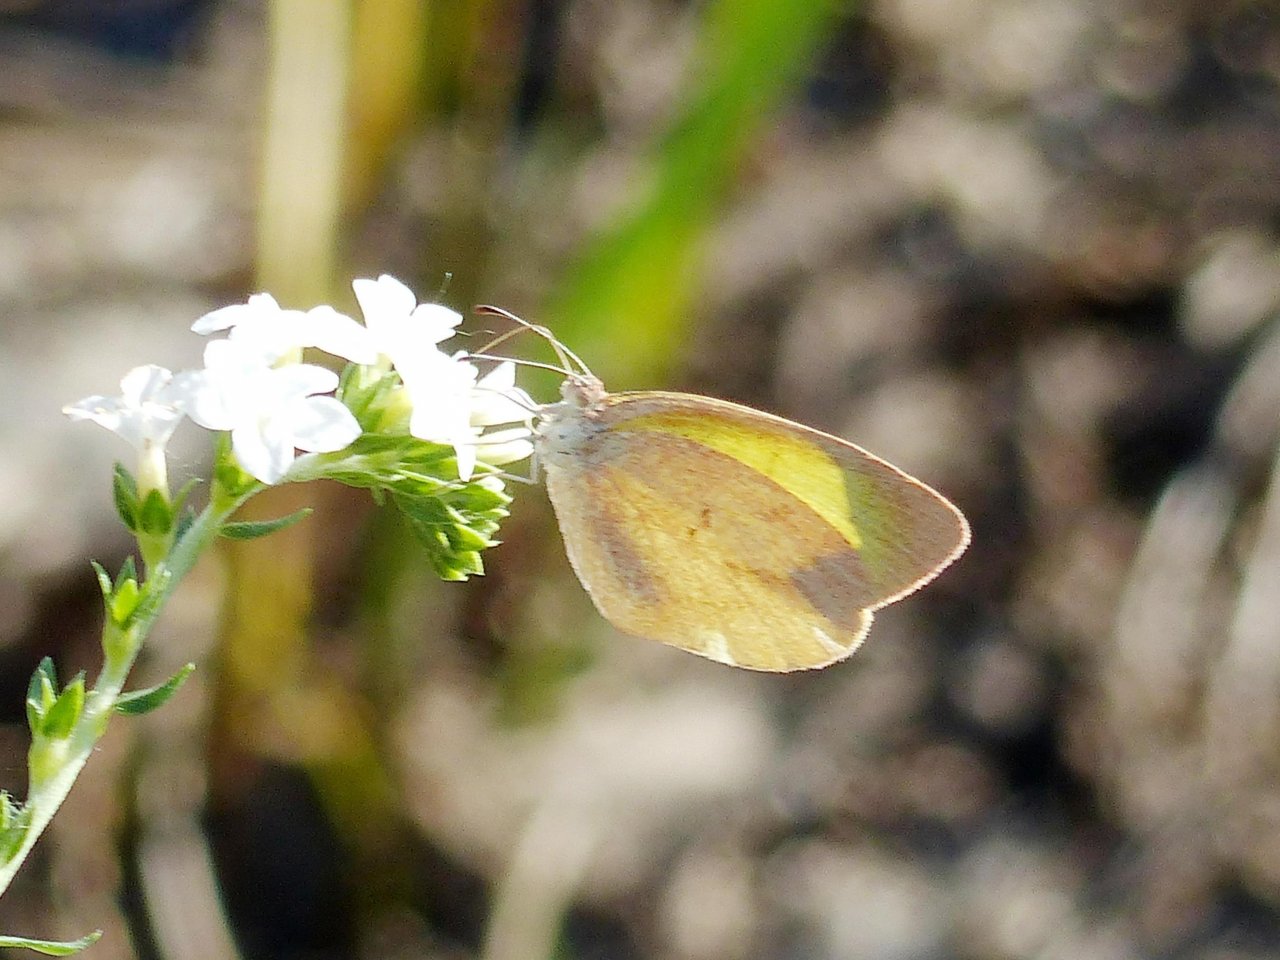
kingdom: Animalia
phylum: Arthropoda
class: Insecta
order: Lepidoptera
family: Pieridae
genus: Eurema
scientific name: Eurema daira
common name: Barred Yellow
